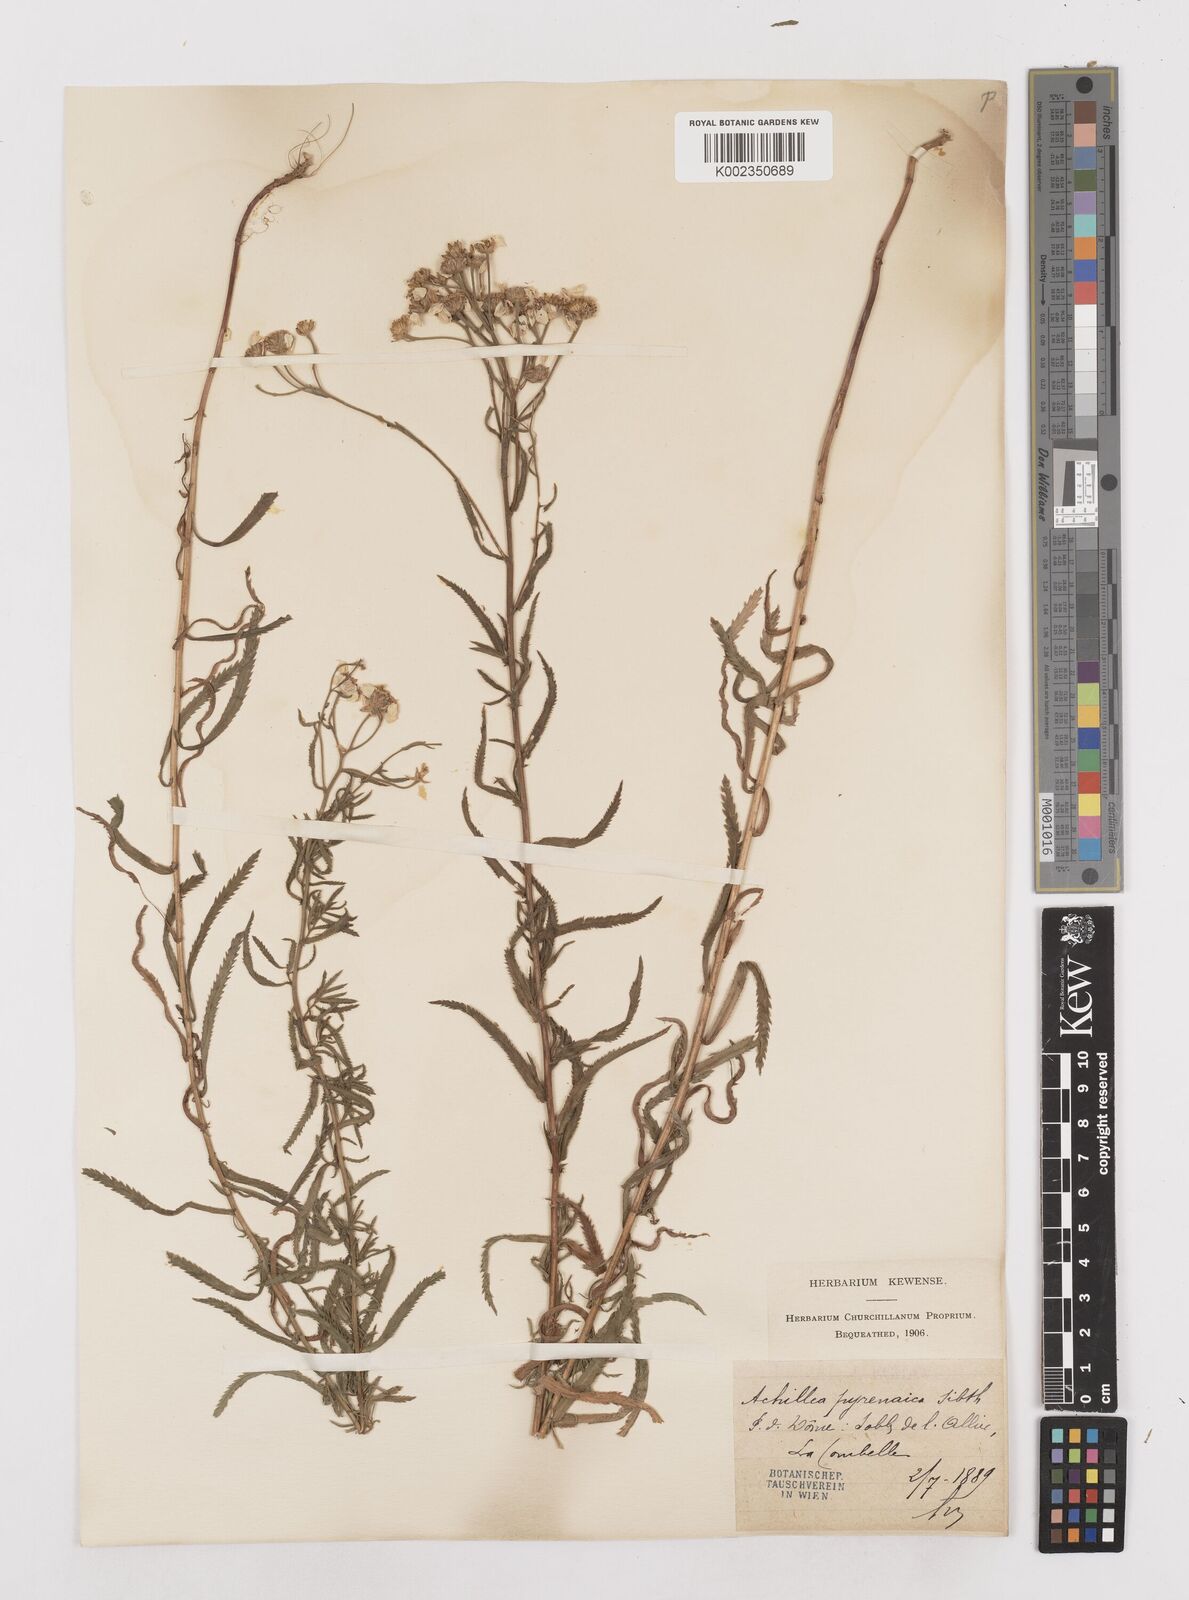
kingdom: Plantae
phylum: Tracheophyta
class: Magnoliopsida
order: Asterales
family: Asteraceae
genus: Achillea
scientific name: Achillea pyrenaica
